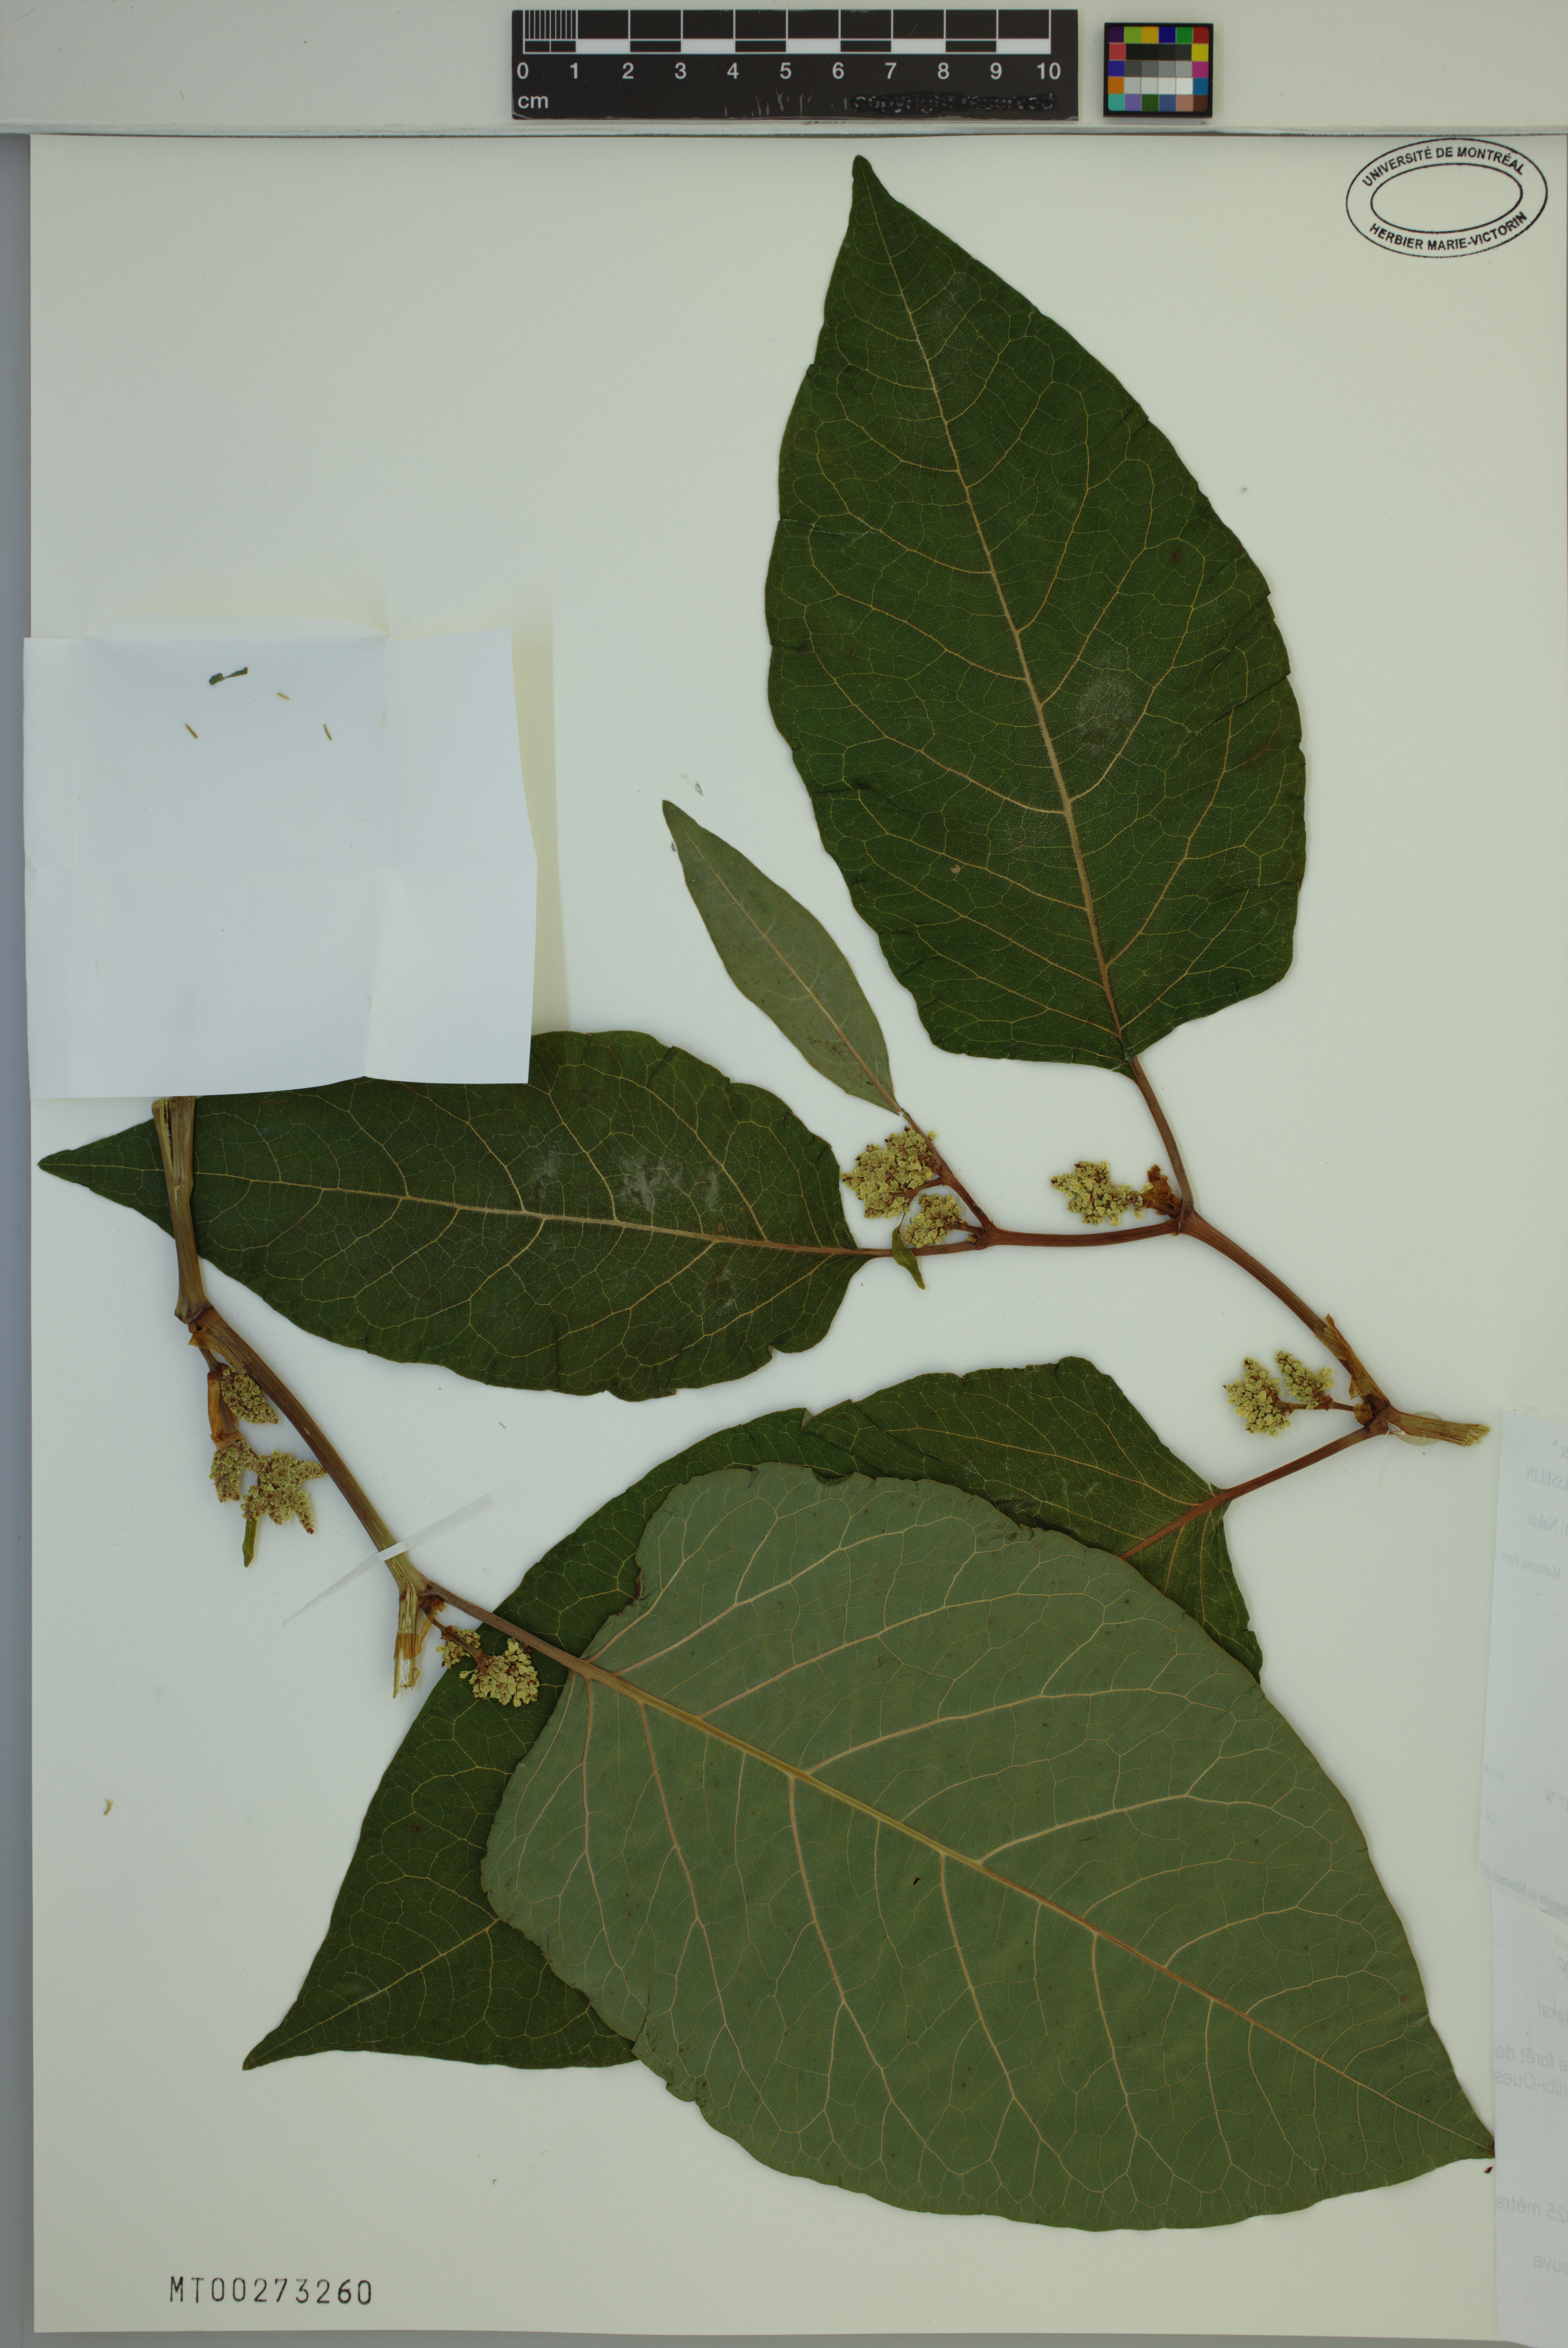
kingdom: Plantae
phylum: Tracheophyta
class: Magnoliopsida
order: Caryophyllales
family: Polygonaceae
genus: Reynoutria
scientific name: Reynoutria sachalinensis
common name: Giant knotweed
